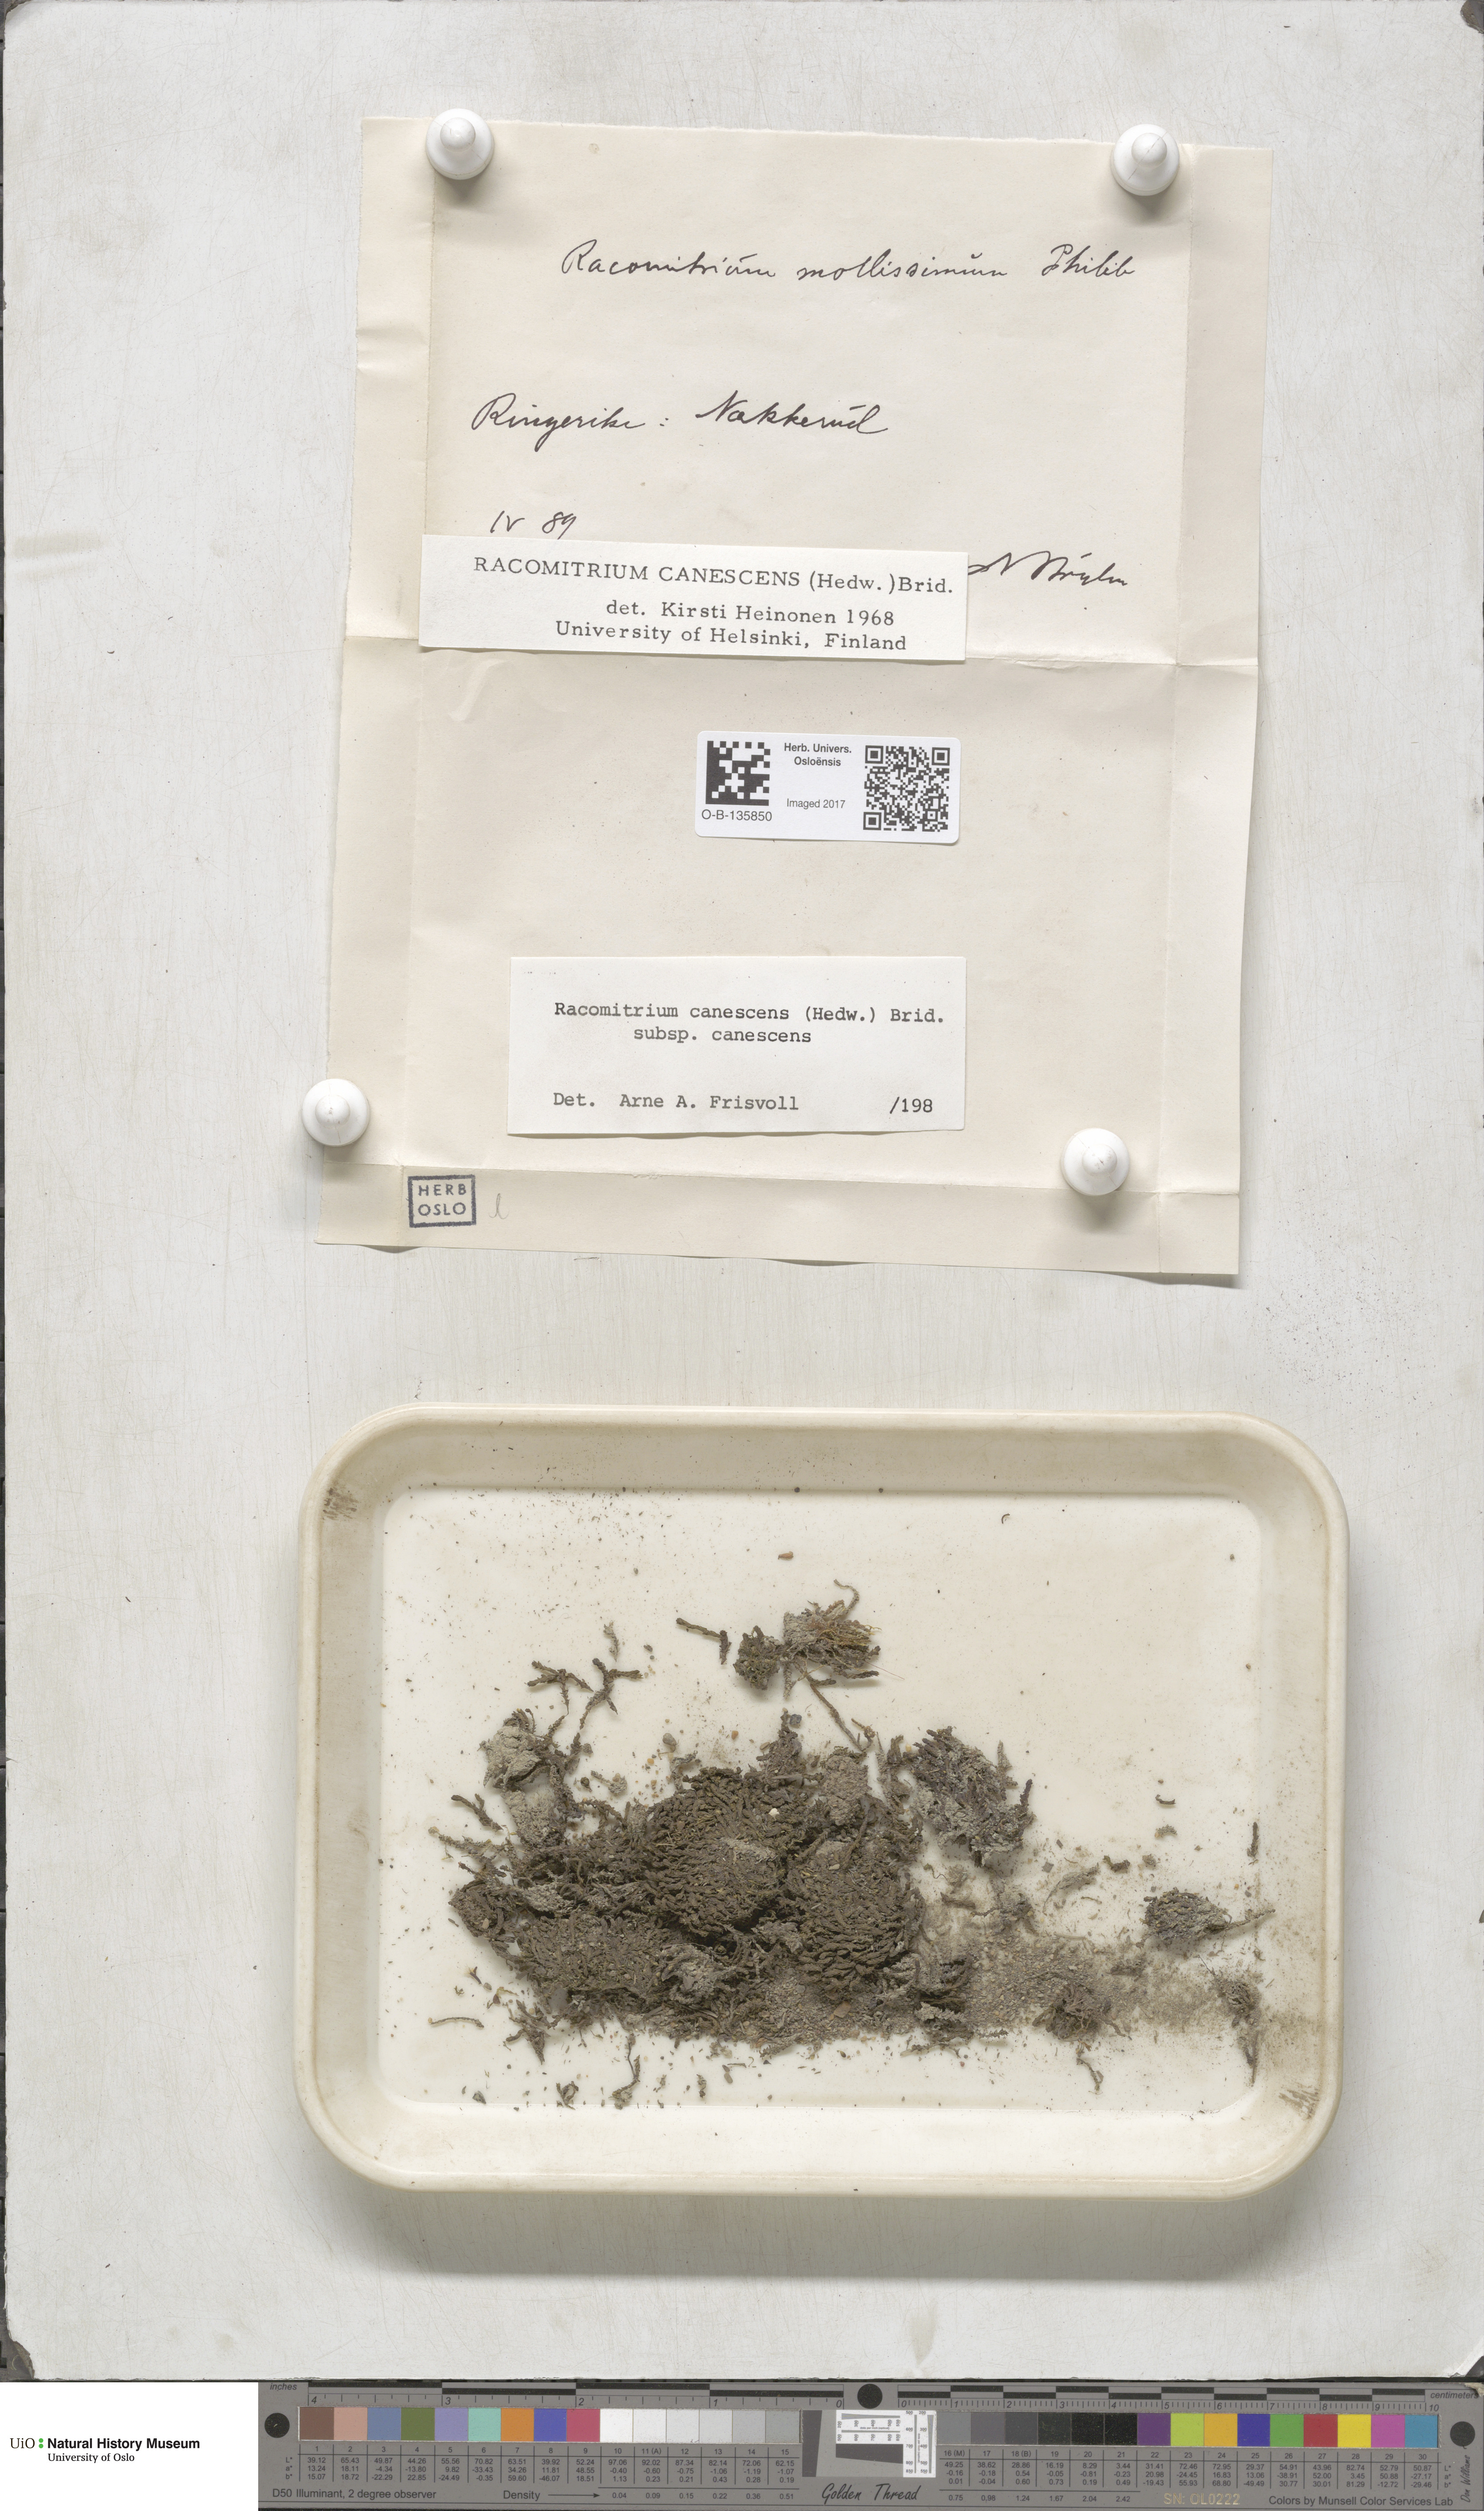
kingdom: Plantae
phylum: Bryophyta
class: Bryopsida
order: Grimmiales
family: Grimmiaceae
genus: Niphotrichum
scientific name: Niphotrichum canescens
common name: Hoary fringe-moss
